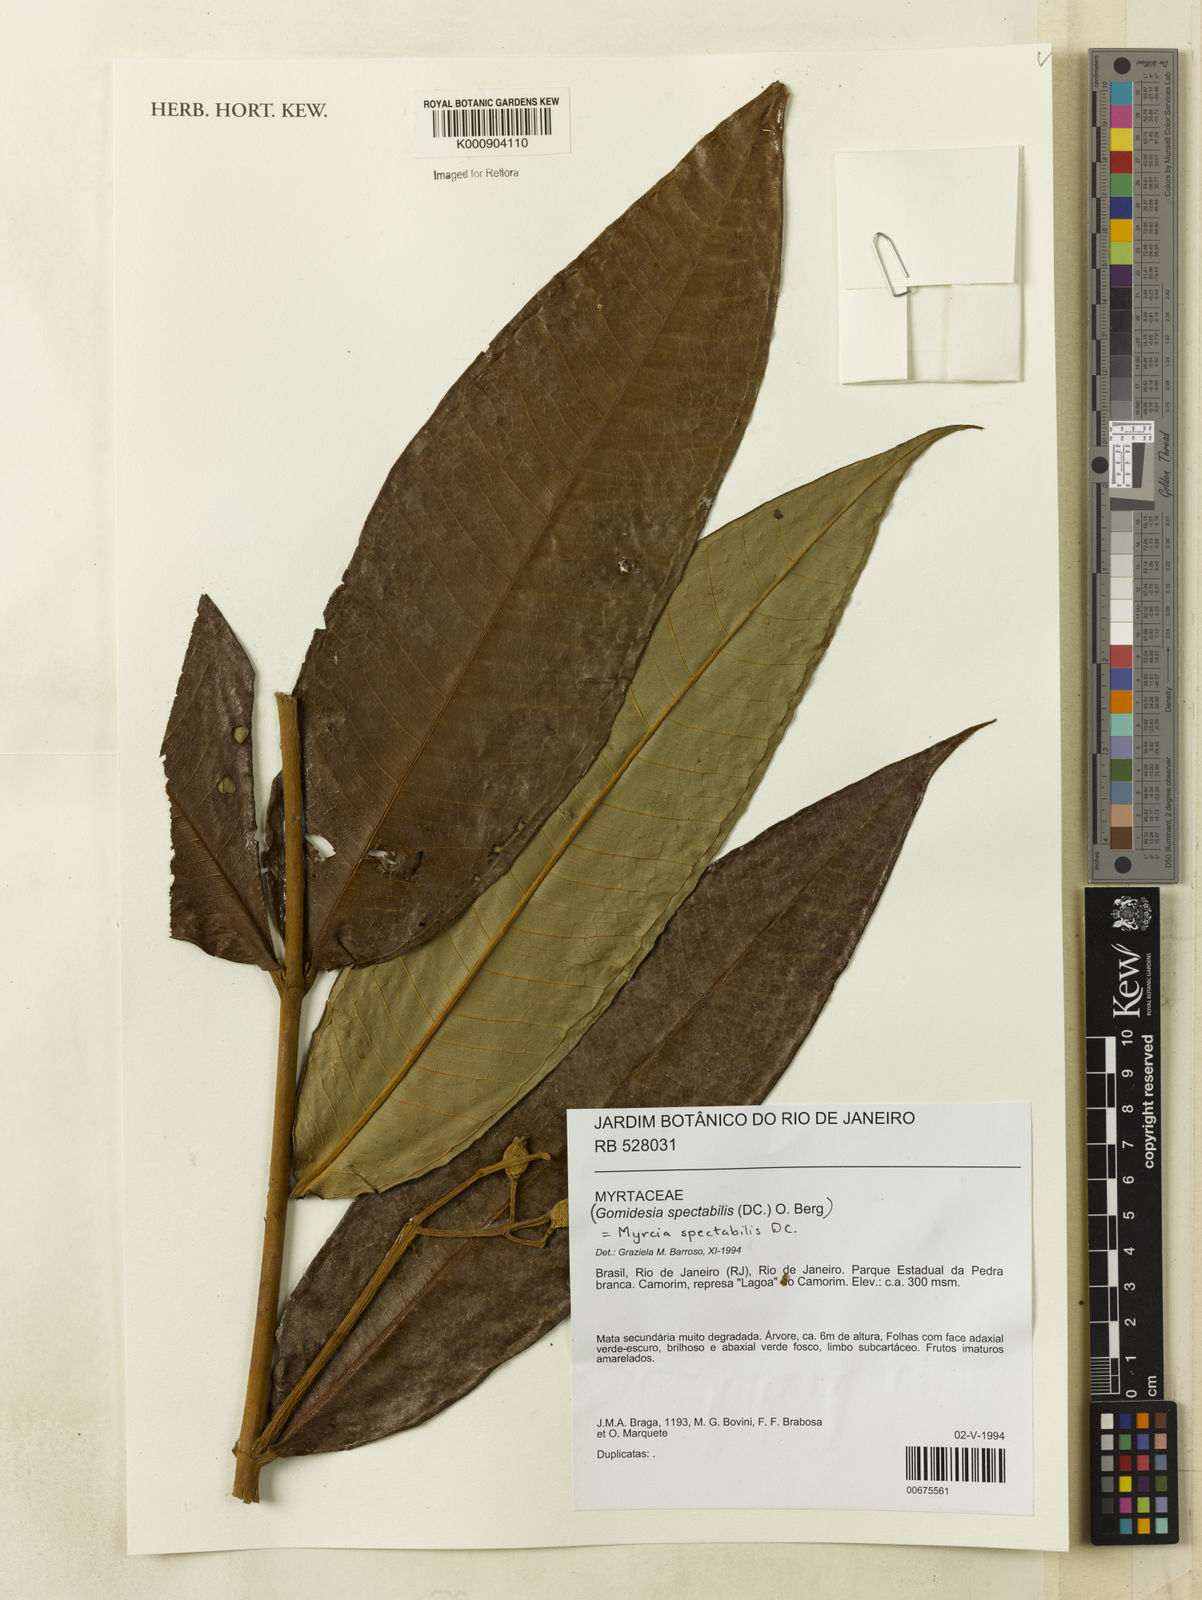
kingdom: Plantae
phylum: Tracheophyta
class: Magnoliopsida
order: Myrtales
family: Myrtaceae
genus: Myrcia
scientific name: Myrcia spectabilis
